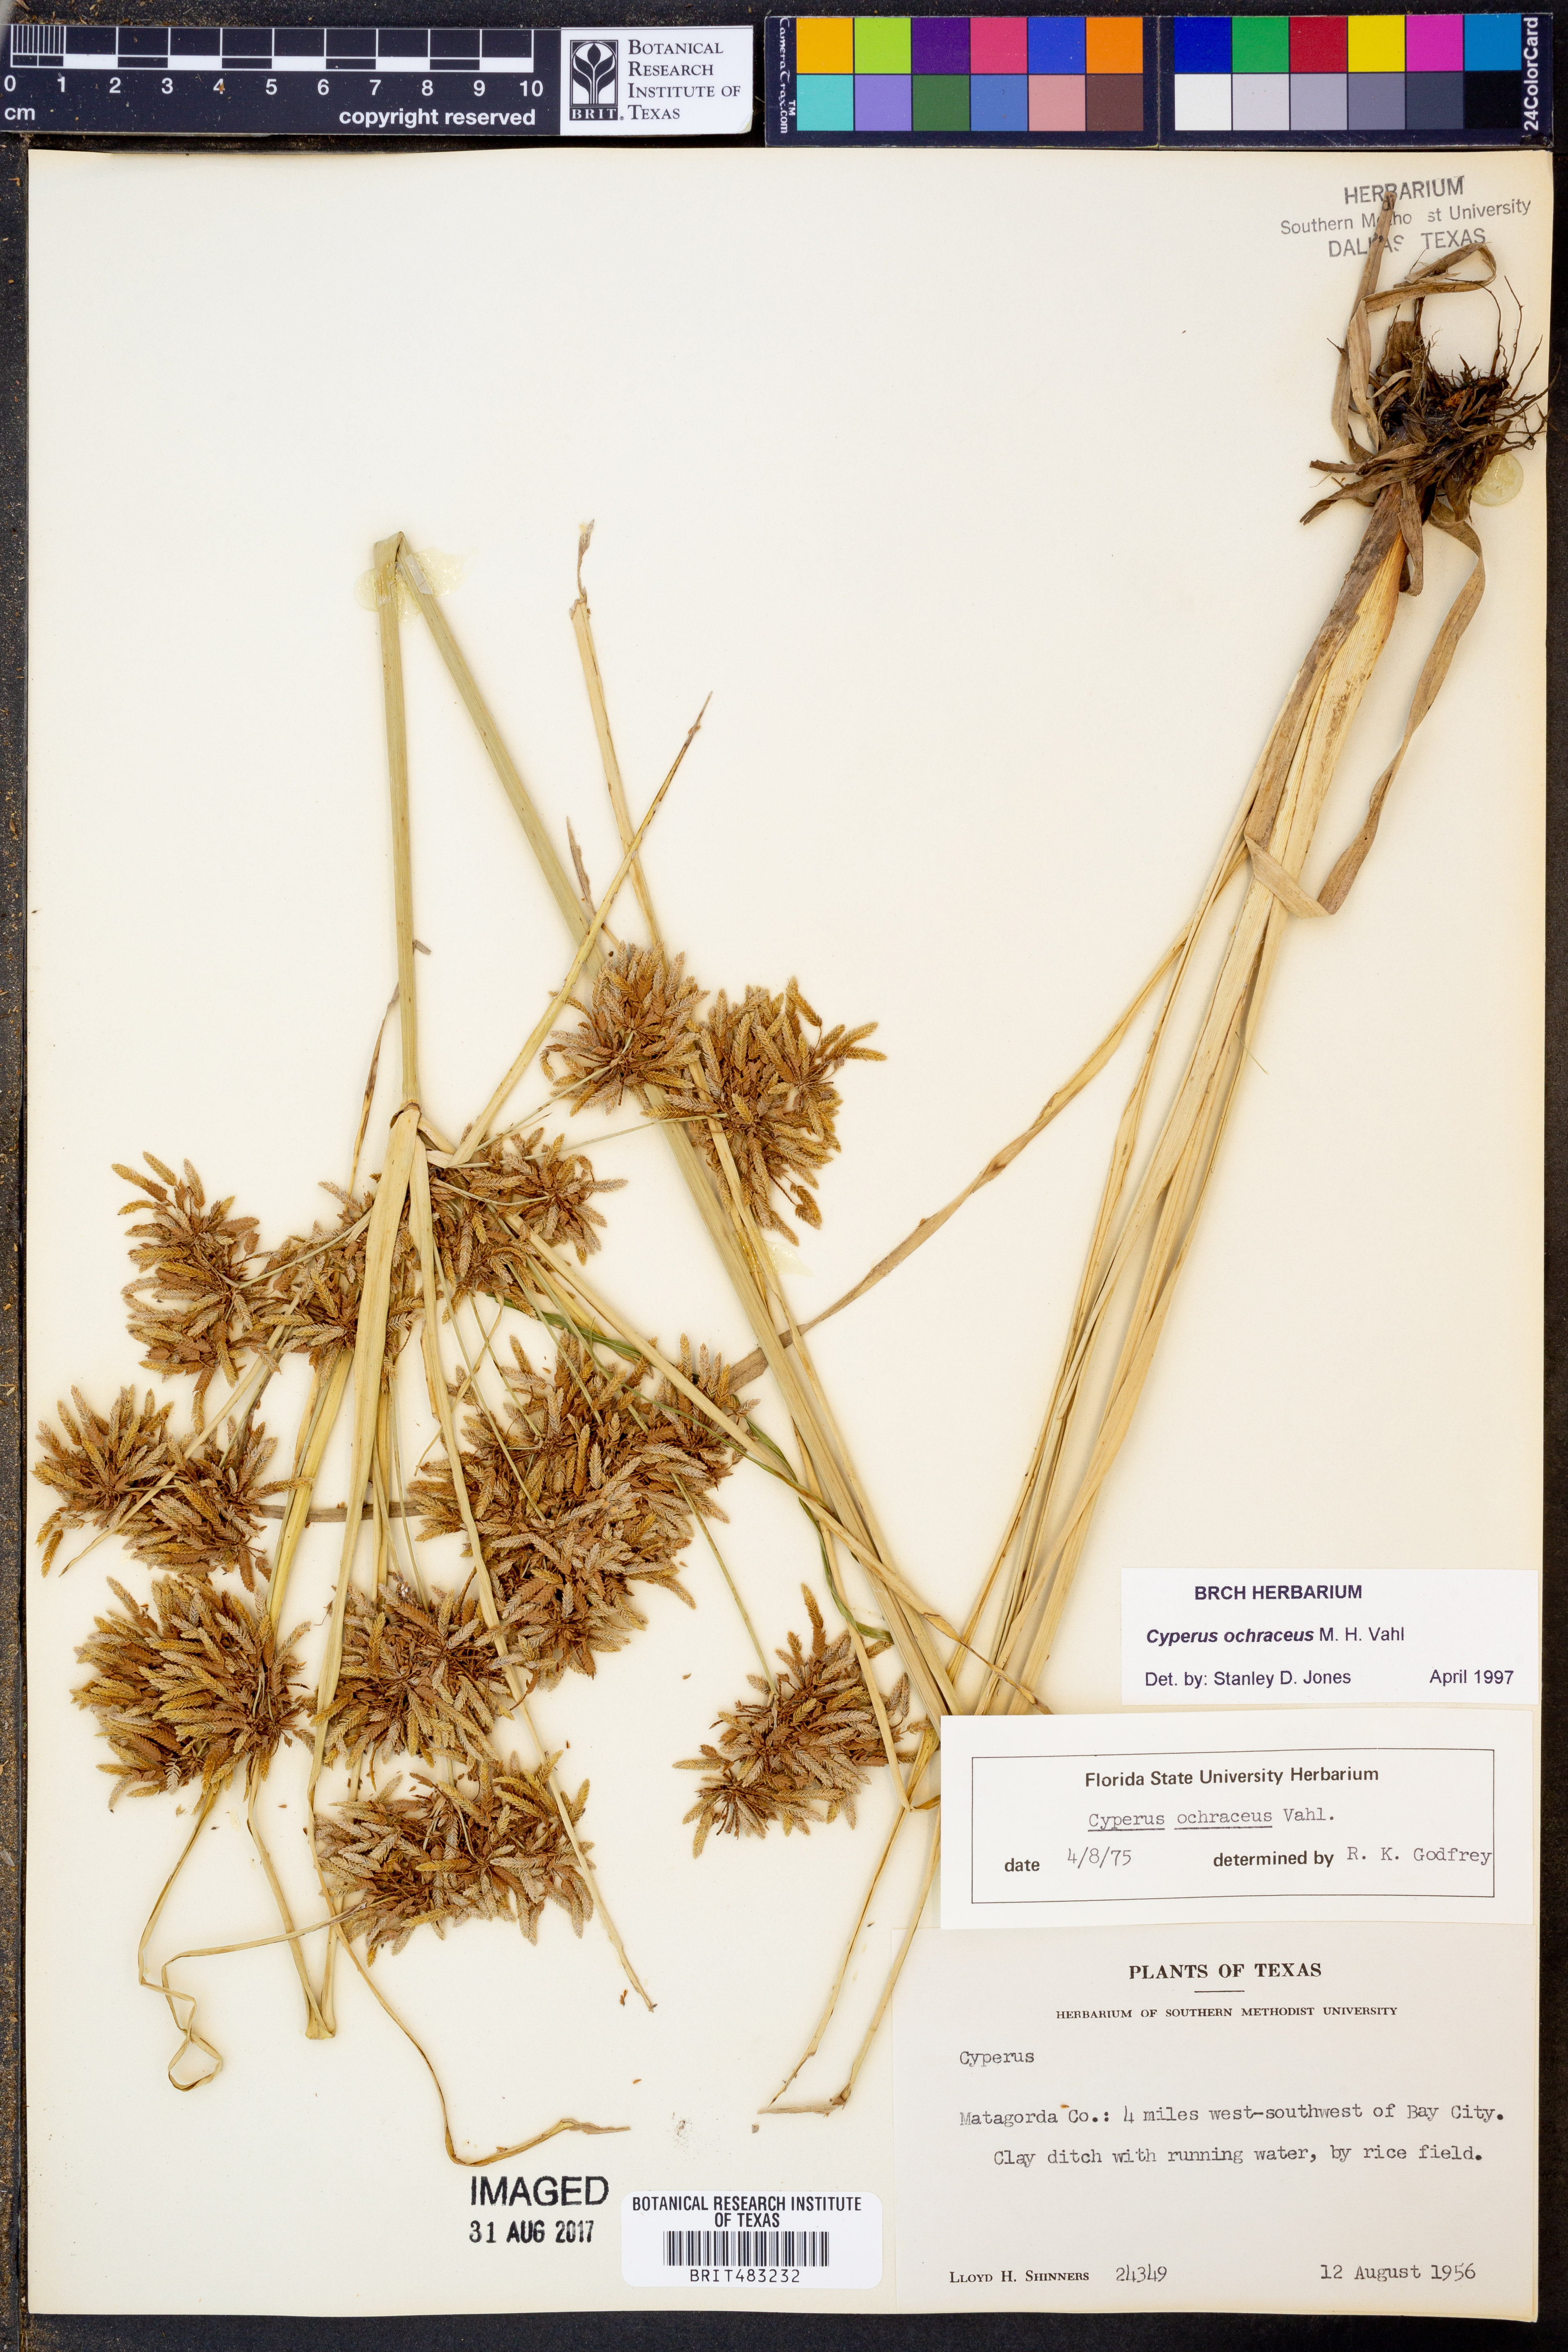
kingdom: Plantae
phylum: Tracheophyta
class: Liliopsida
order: Poales
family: Cyperaceae
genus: Cyperus
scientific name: Cyperus ochraceus
